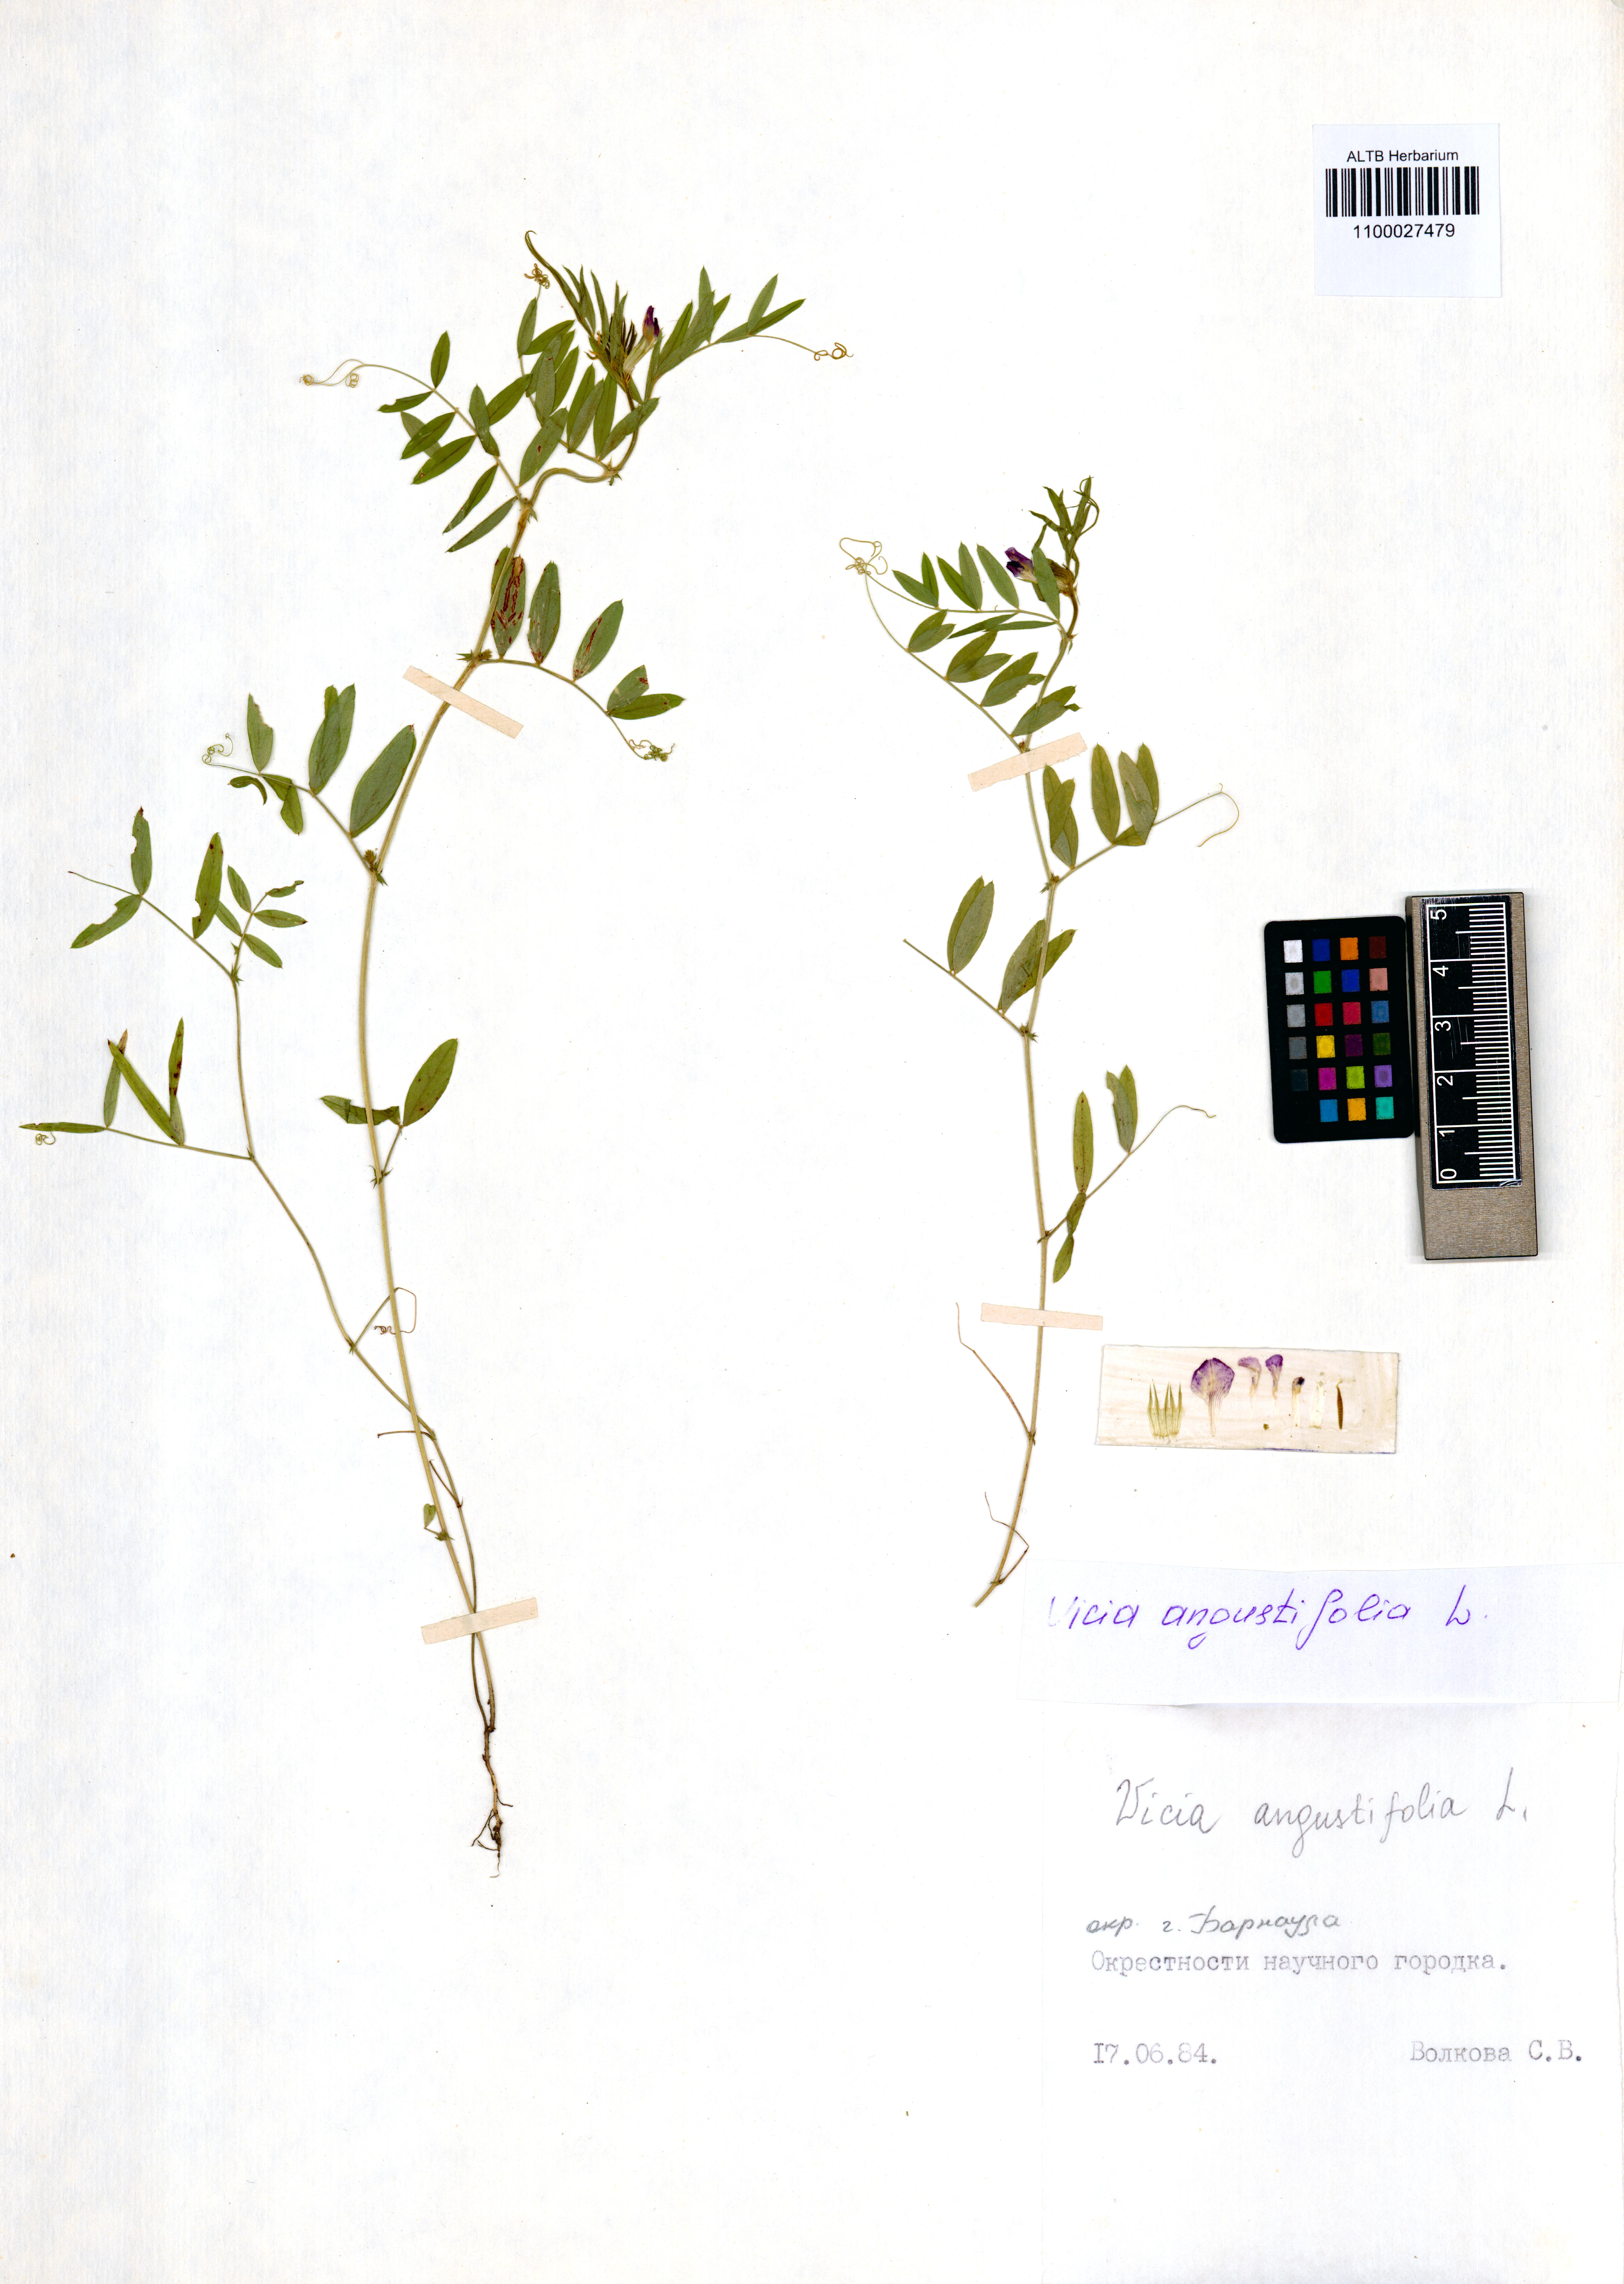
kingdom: Plantae
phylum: Tracheophyta
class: Magnoliopsida
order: Fabales
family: Fabaceae
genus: Vicia
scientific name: Vicia sativa
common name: Garden vetch
